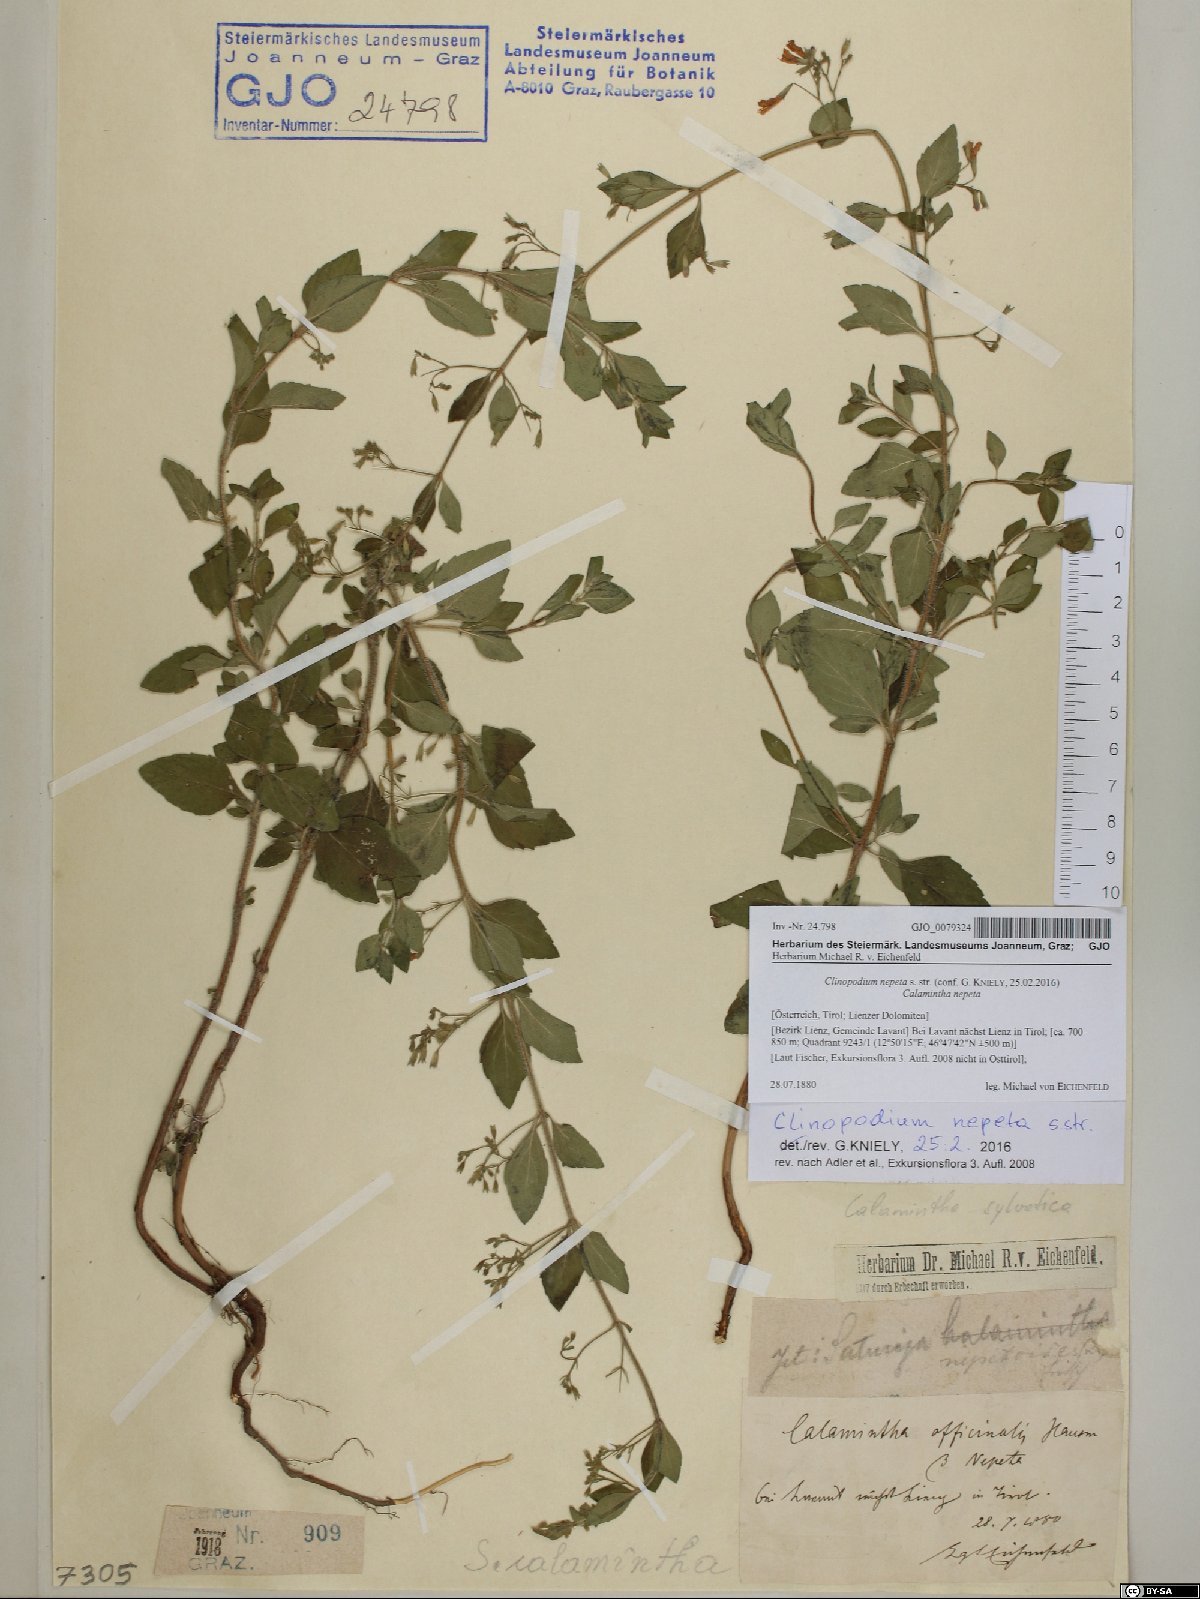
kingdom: Plantae
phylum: Tracheophyta
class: Magnoliopsida
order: Lamiales
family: Lamiaceae
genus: Clinopodium
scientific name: Clinopodium nepeta
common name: Lesser calamint
